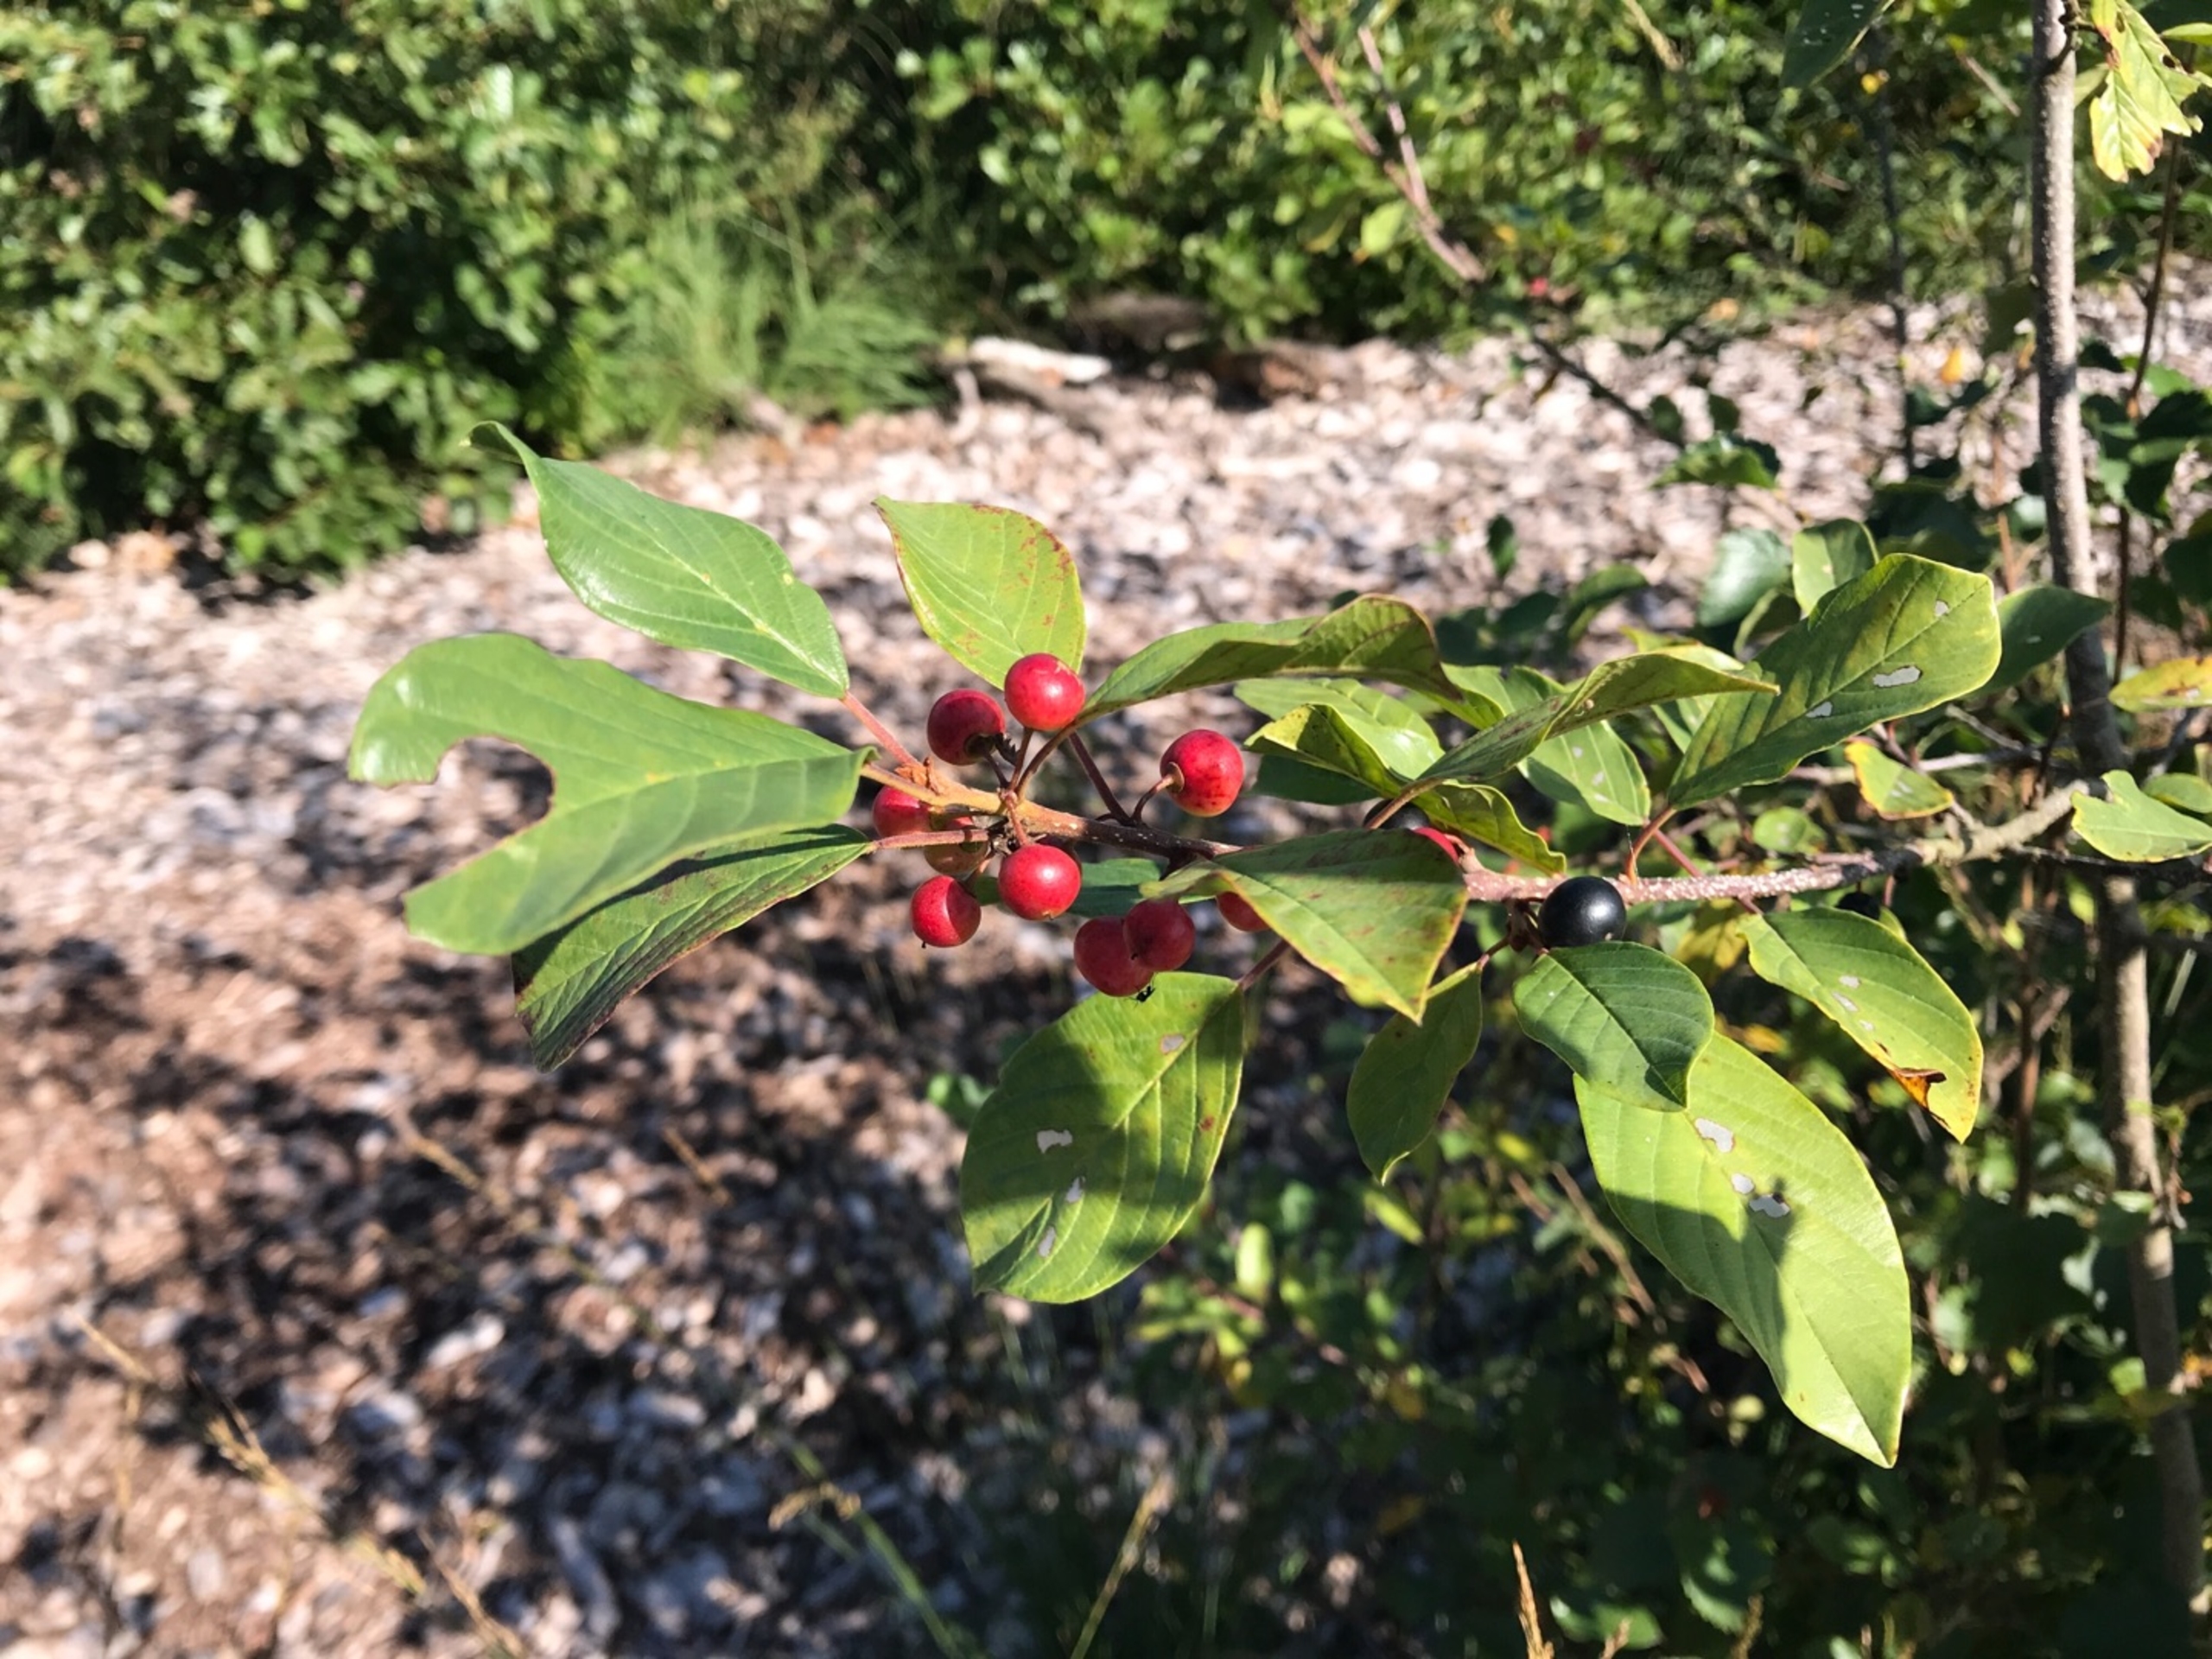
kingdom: Plantae
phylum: Tracheophyta
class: Magnoliopsida
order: Rosales
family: Rhamnaceae
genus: Frangula
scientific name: Frangula alnus
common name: Tørst
